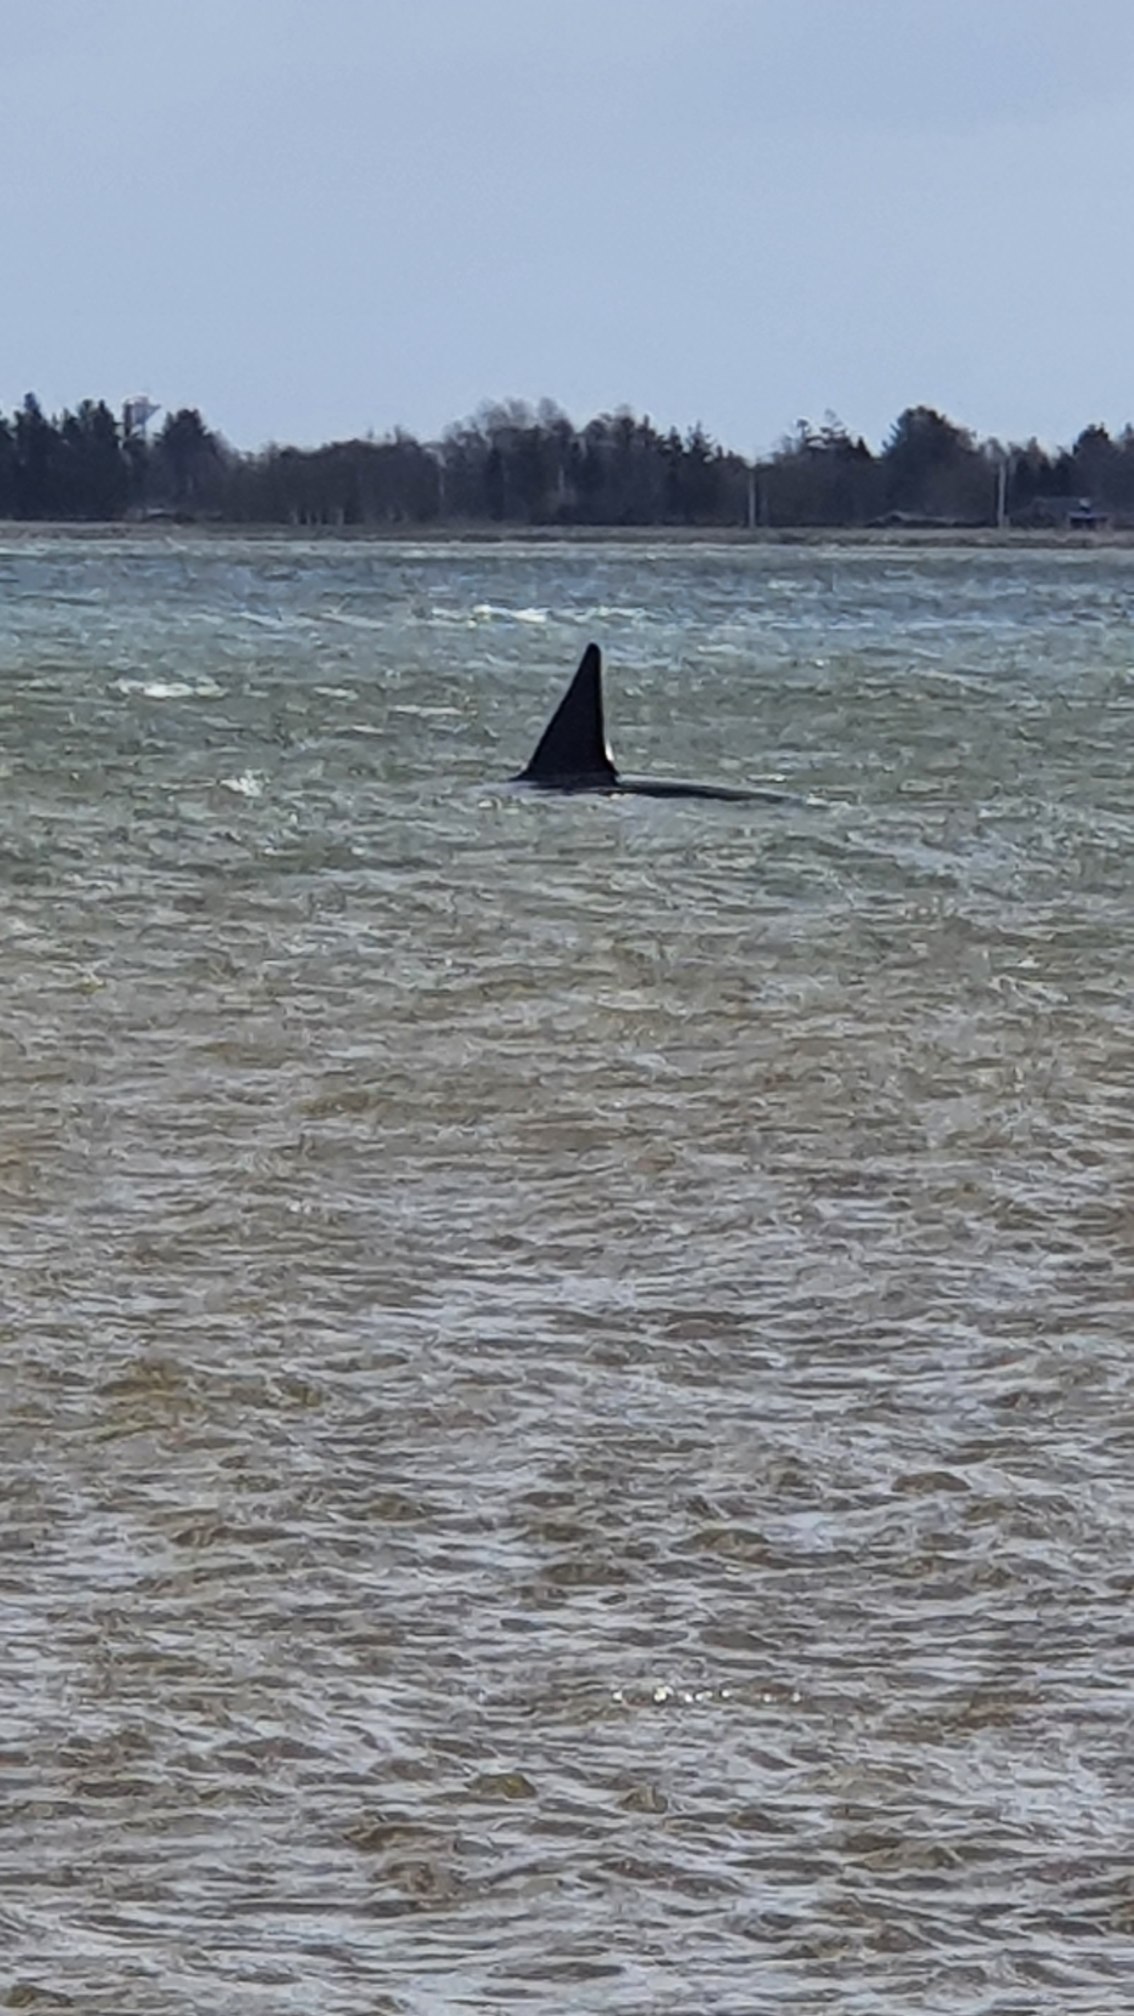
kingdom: Animalia
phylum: Chordata
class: Mammalia
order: Cetacea
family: Delphinidae
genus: Orcinus
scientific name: Orcinus orca
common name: Spækhugger
